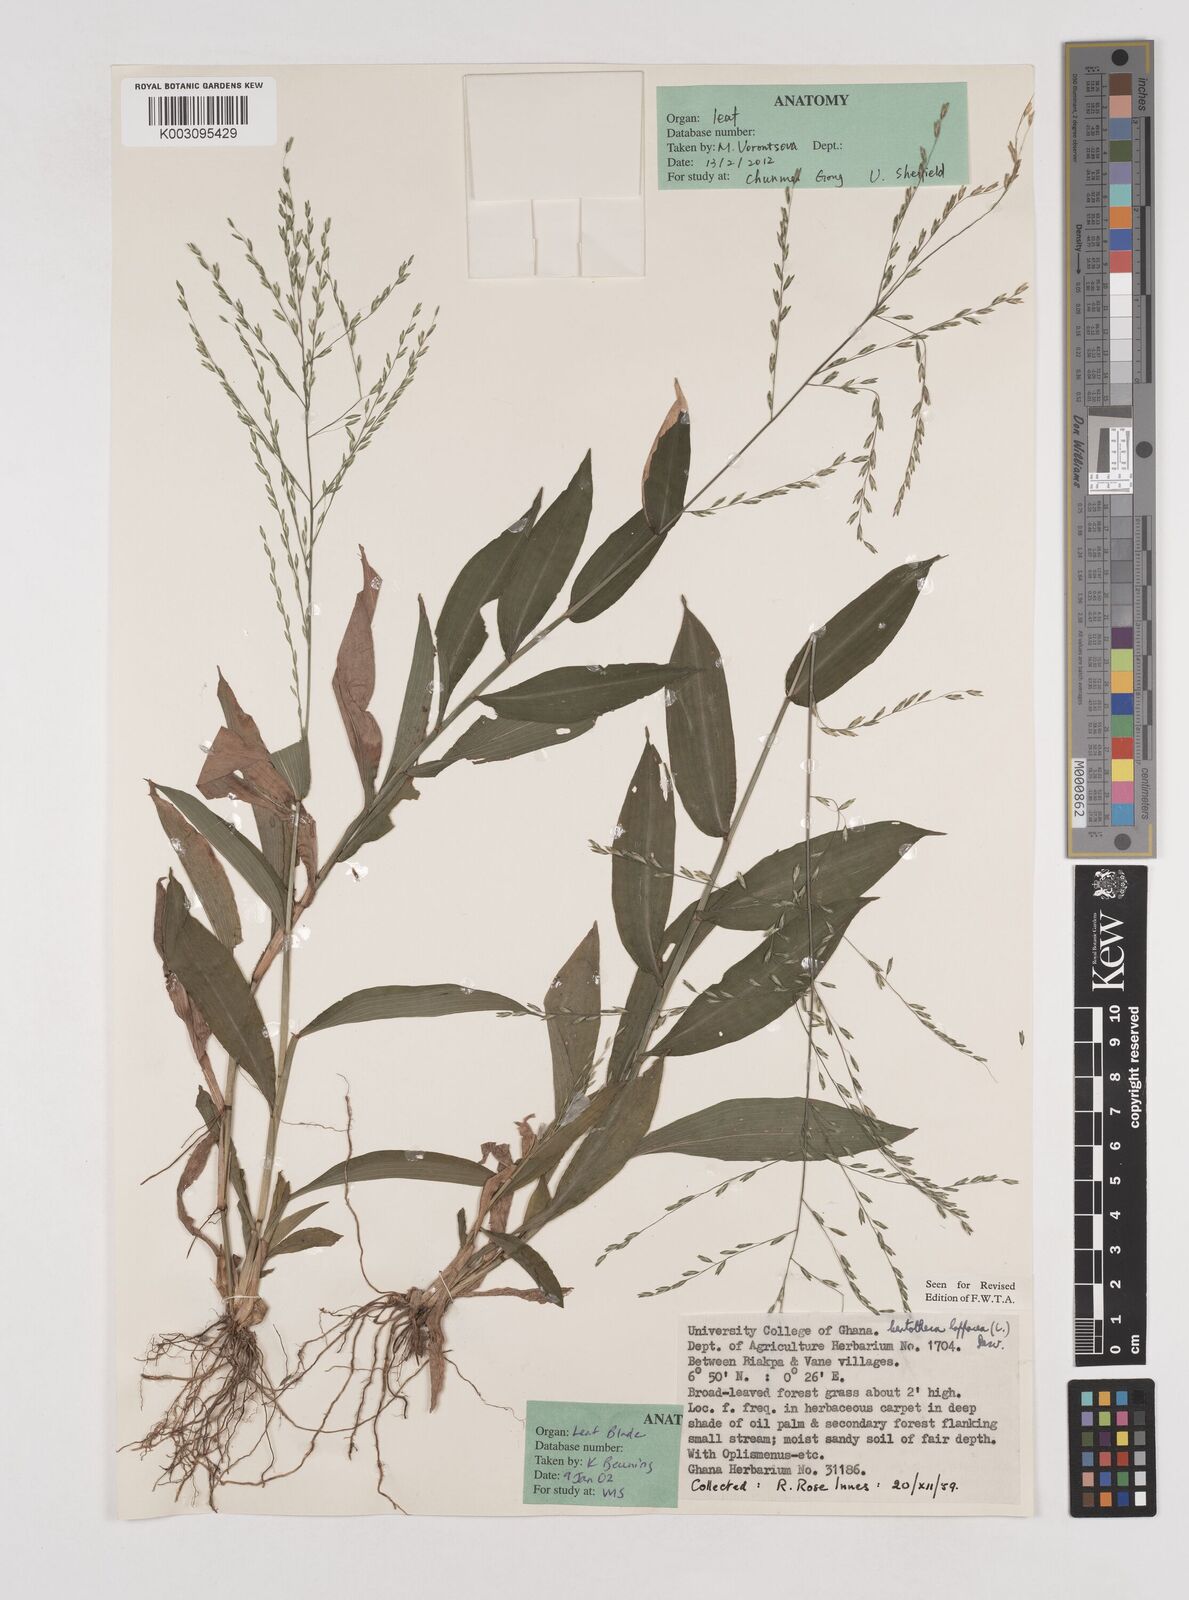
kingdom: Plantae
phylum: Tracheophyta
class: Liliopsida
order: Poales
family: Poaceae
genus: Centotheca
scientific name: Centotheca lappacea
